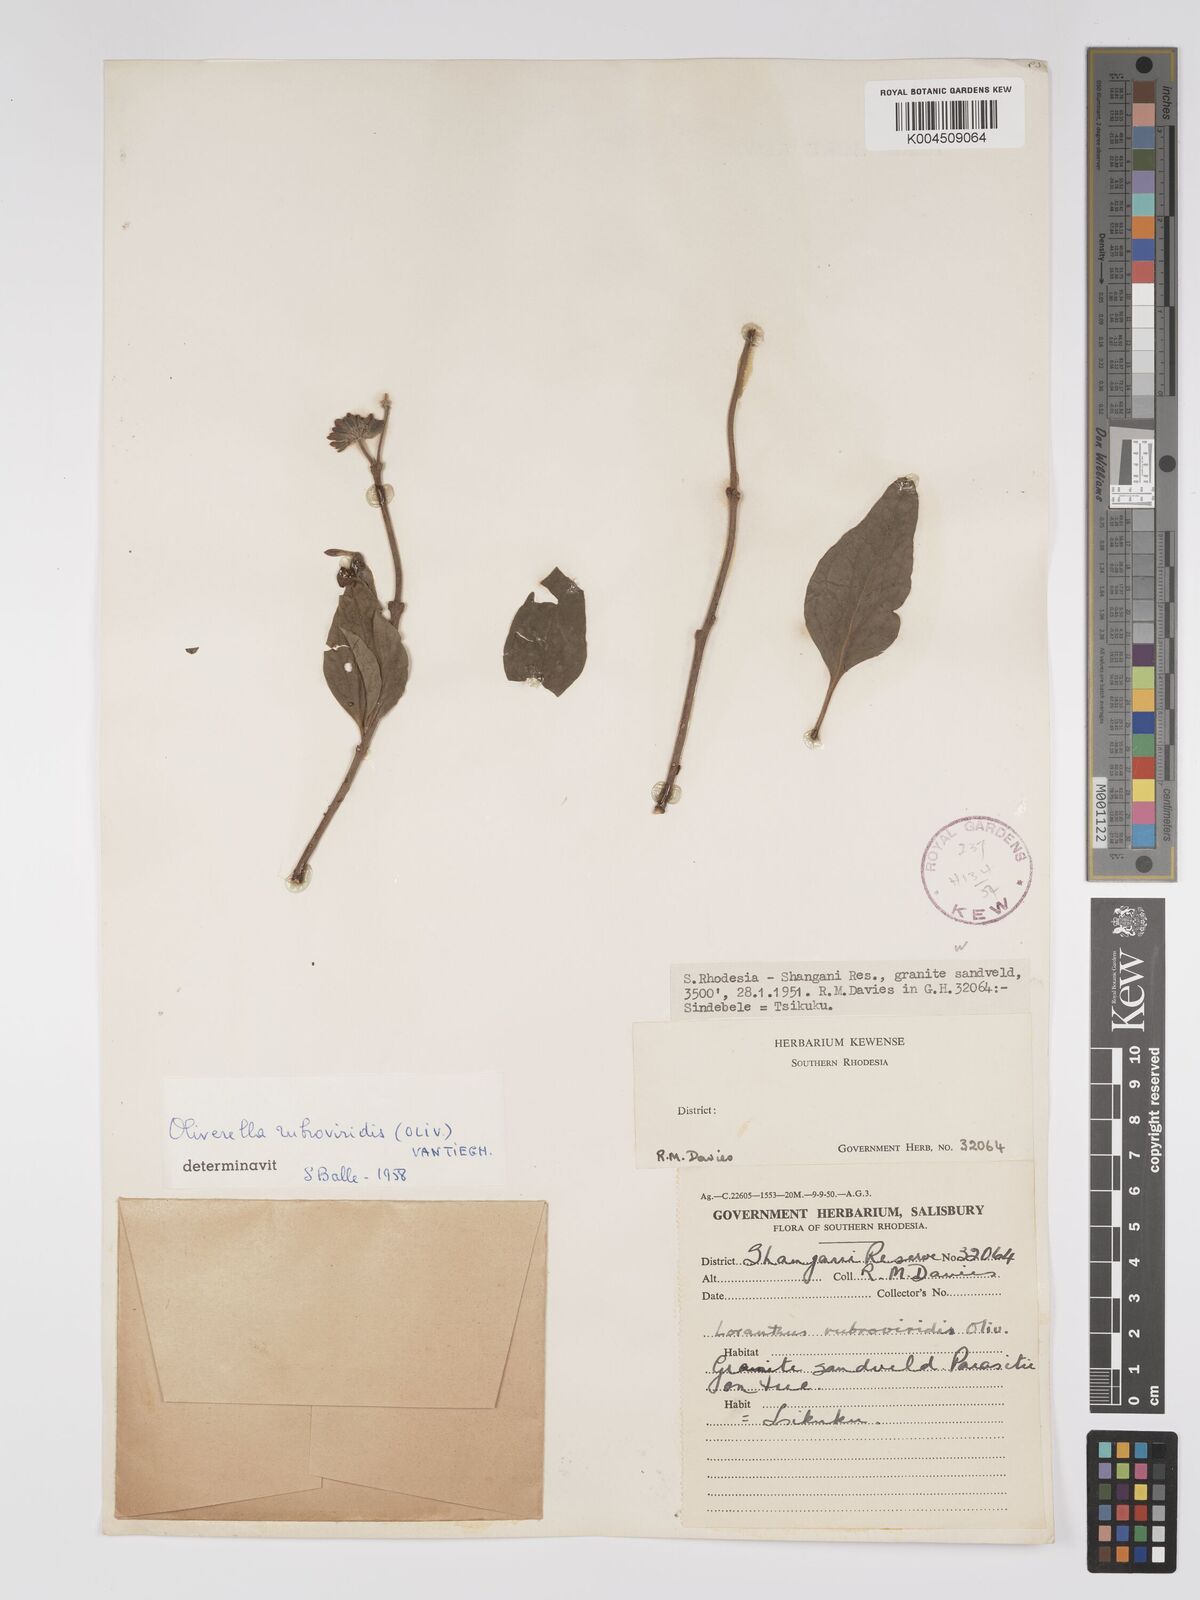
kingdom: Plantae
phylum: Tracheophyta
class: Magnoliopsida
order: Santalales
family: Loranthaceae
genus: Oliverella
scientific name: Oliverella rubroviridis
